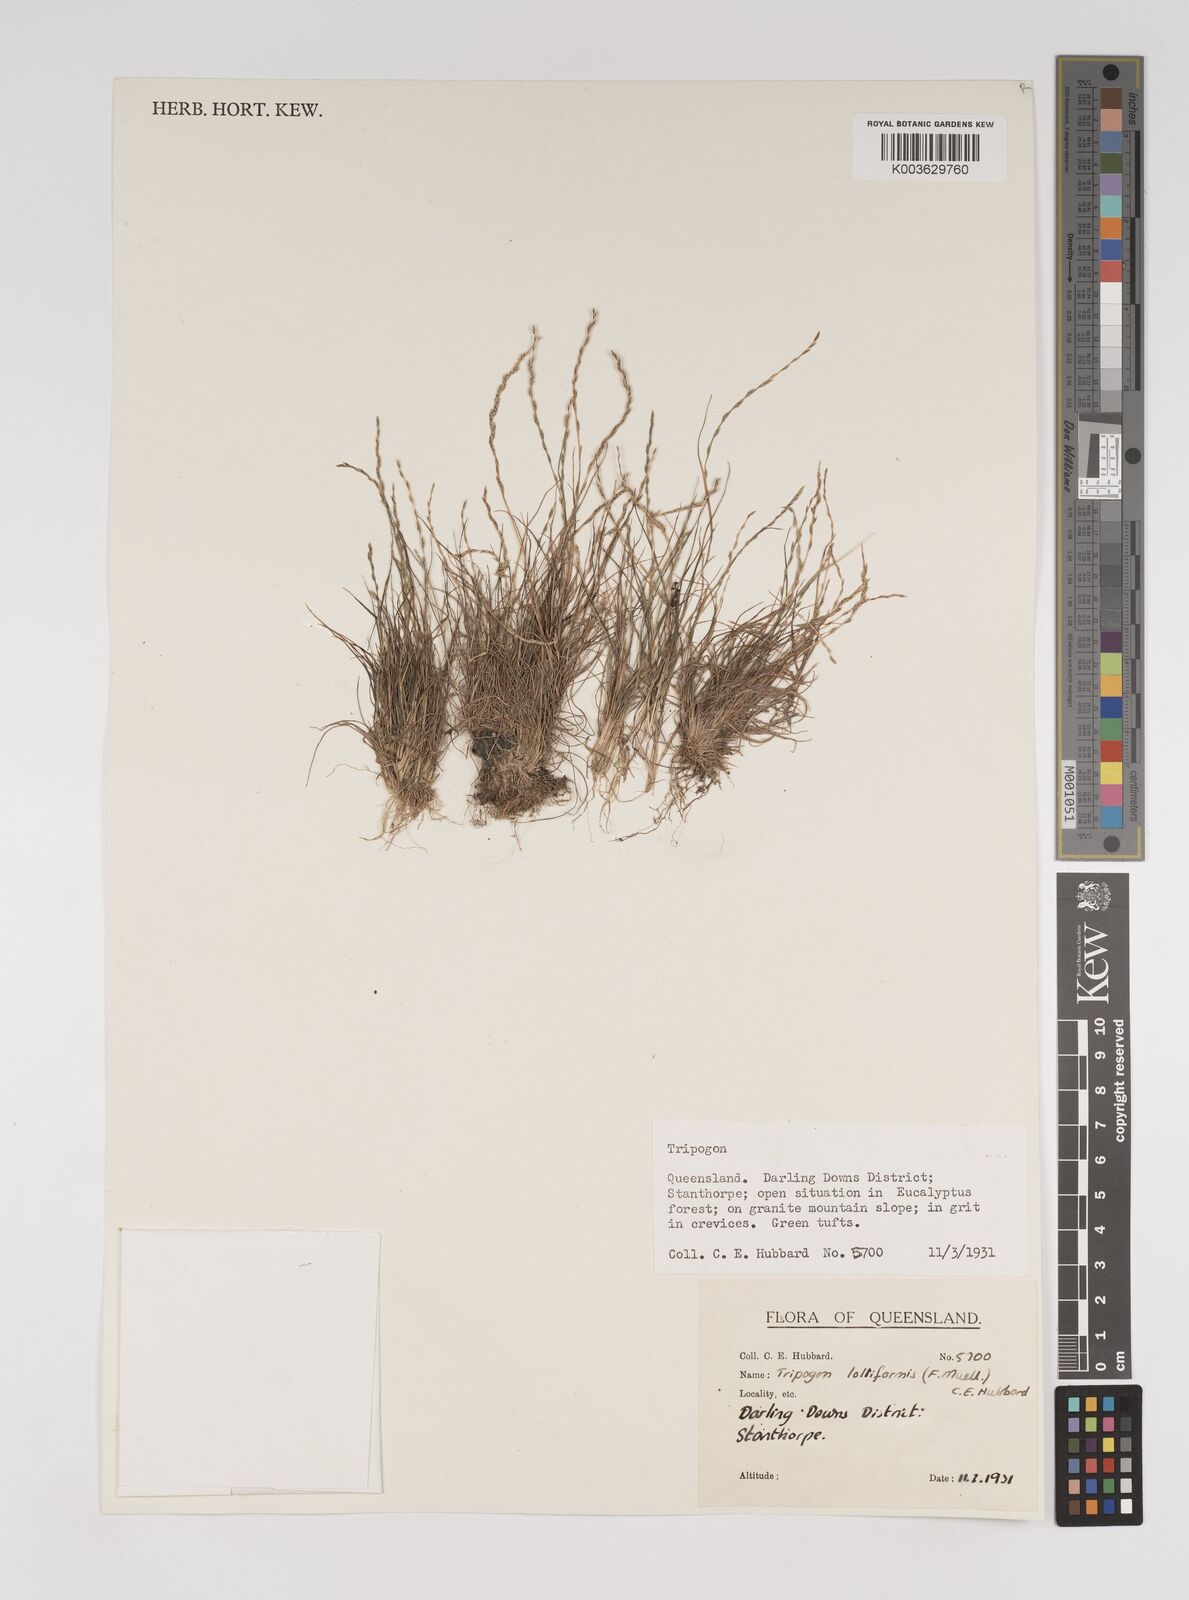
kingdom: Plantae
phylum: Tracheophyta
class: Liliopsida
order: Poales
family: Poaceae
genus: Tripogonella
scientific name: Tripogonella loliiformis
